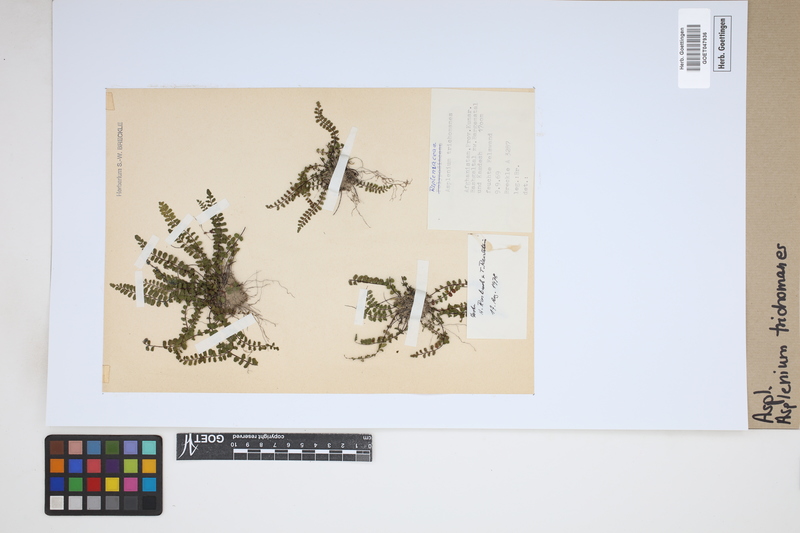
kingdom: Plantae
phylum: Tracheophyta
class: Polypodiopsida
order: Polypodiales
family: Aspleniaceae
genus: Asplenium
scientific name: Asplenium trichomanes
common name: Maidenhair spleenwort
